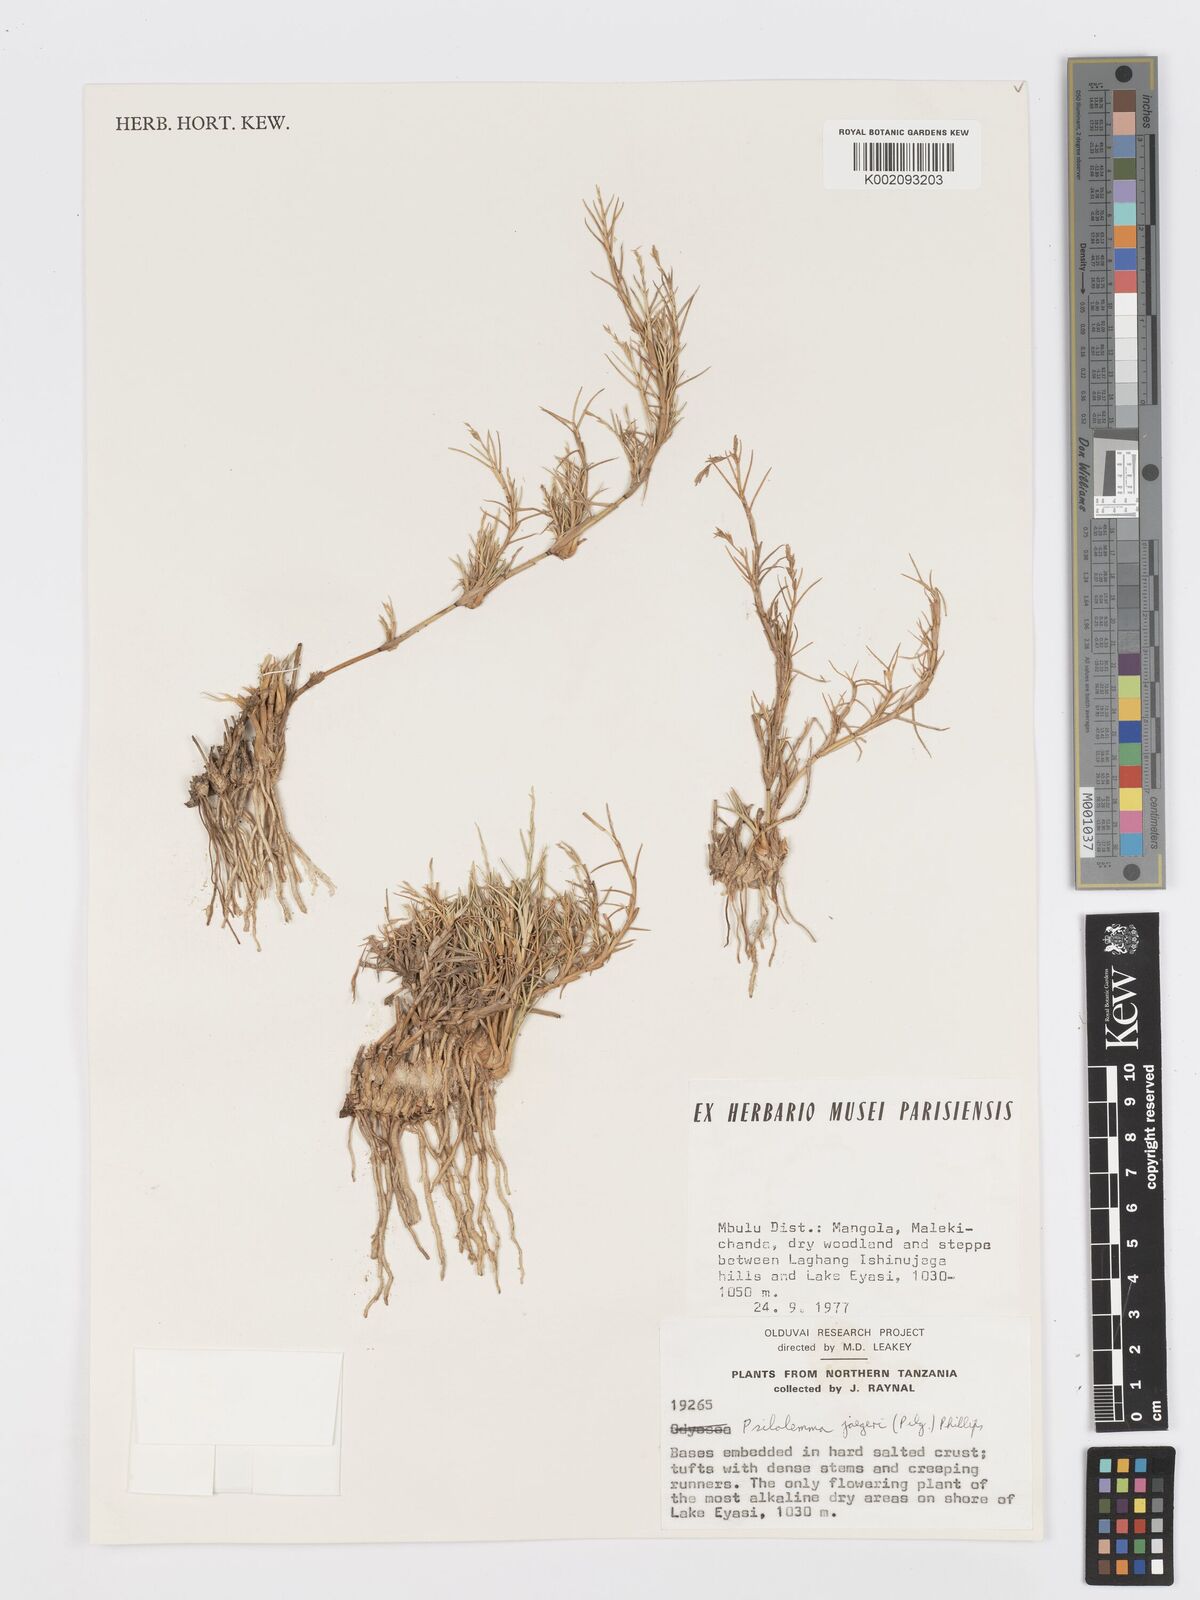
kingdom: Plantae
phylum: Tracheophyta
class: Liliopsida
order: Poales
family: Poaceae
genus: Psilolemma
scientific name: Psilolemma jaegeri
